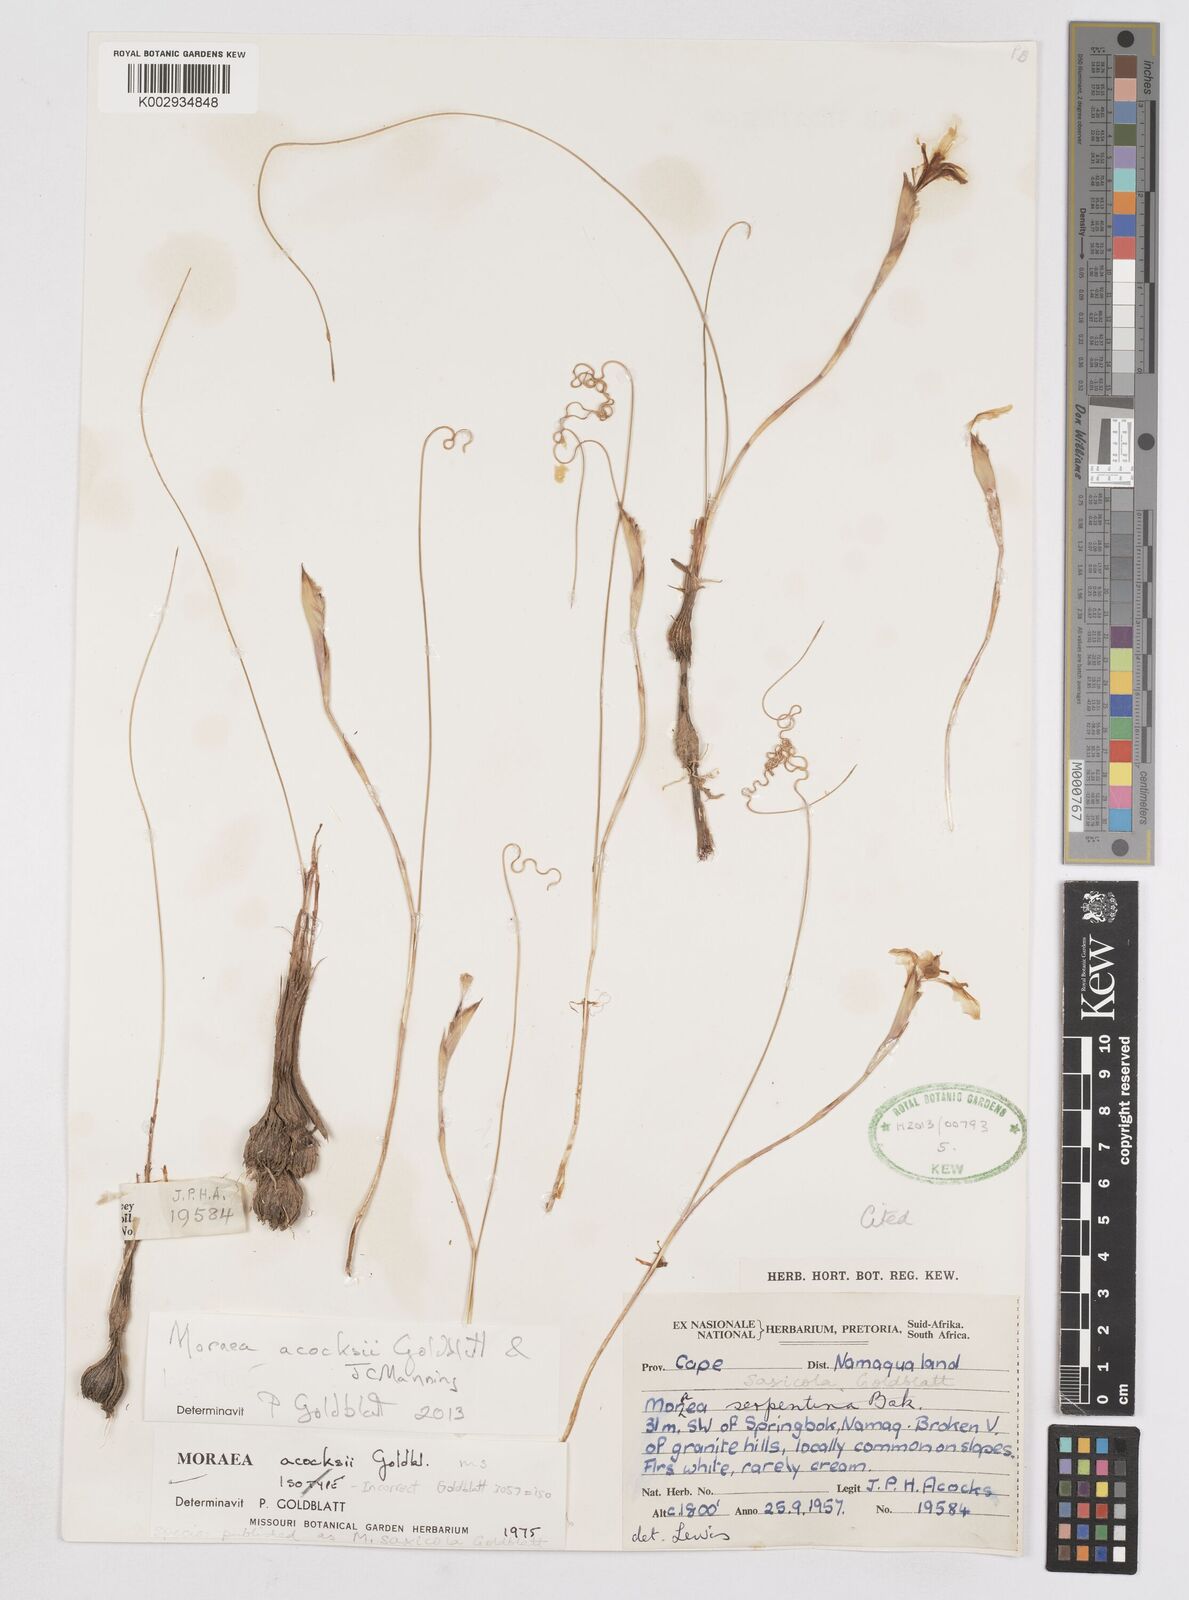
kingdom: Plantae
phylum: Tracheophyta
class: Liliopsida
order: Asparagales
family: Iridaceae
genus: Moraea
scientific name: Moraea acocksii
